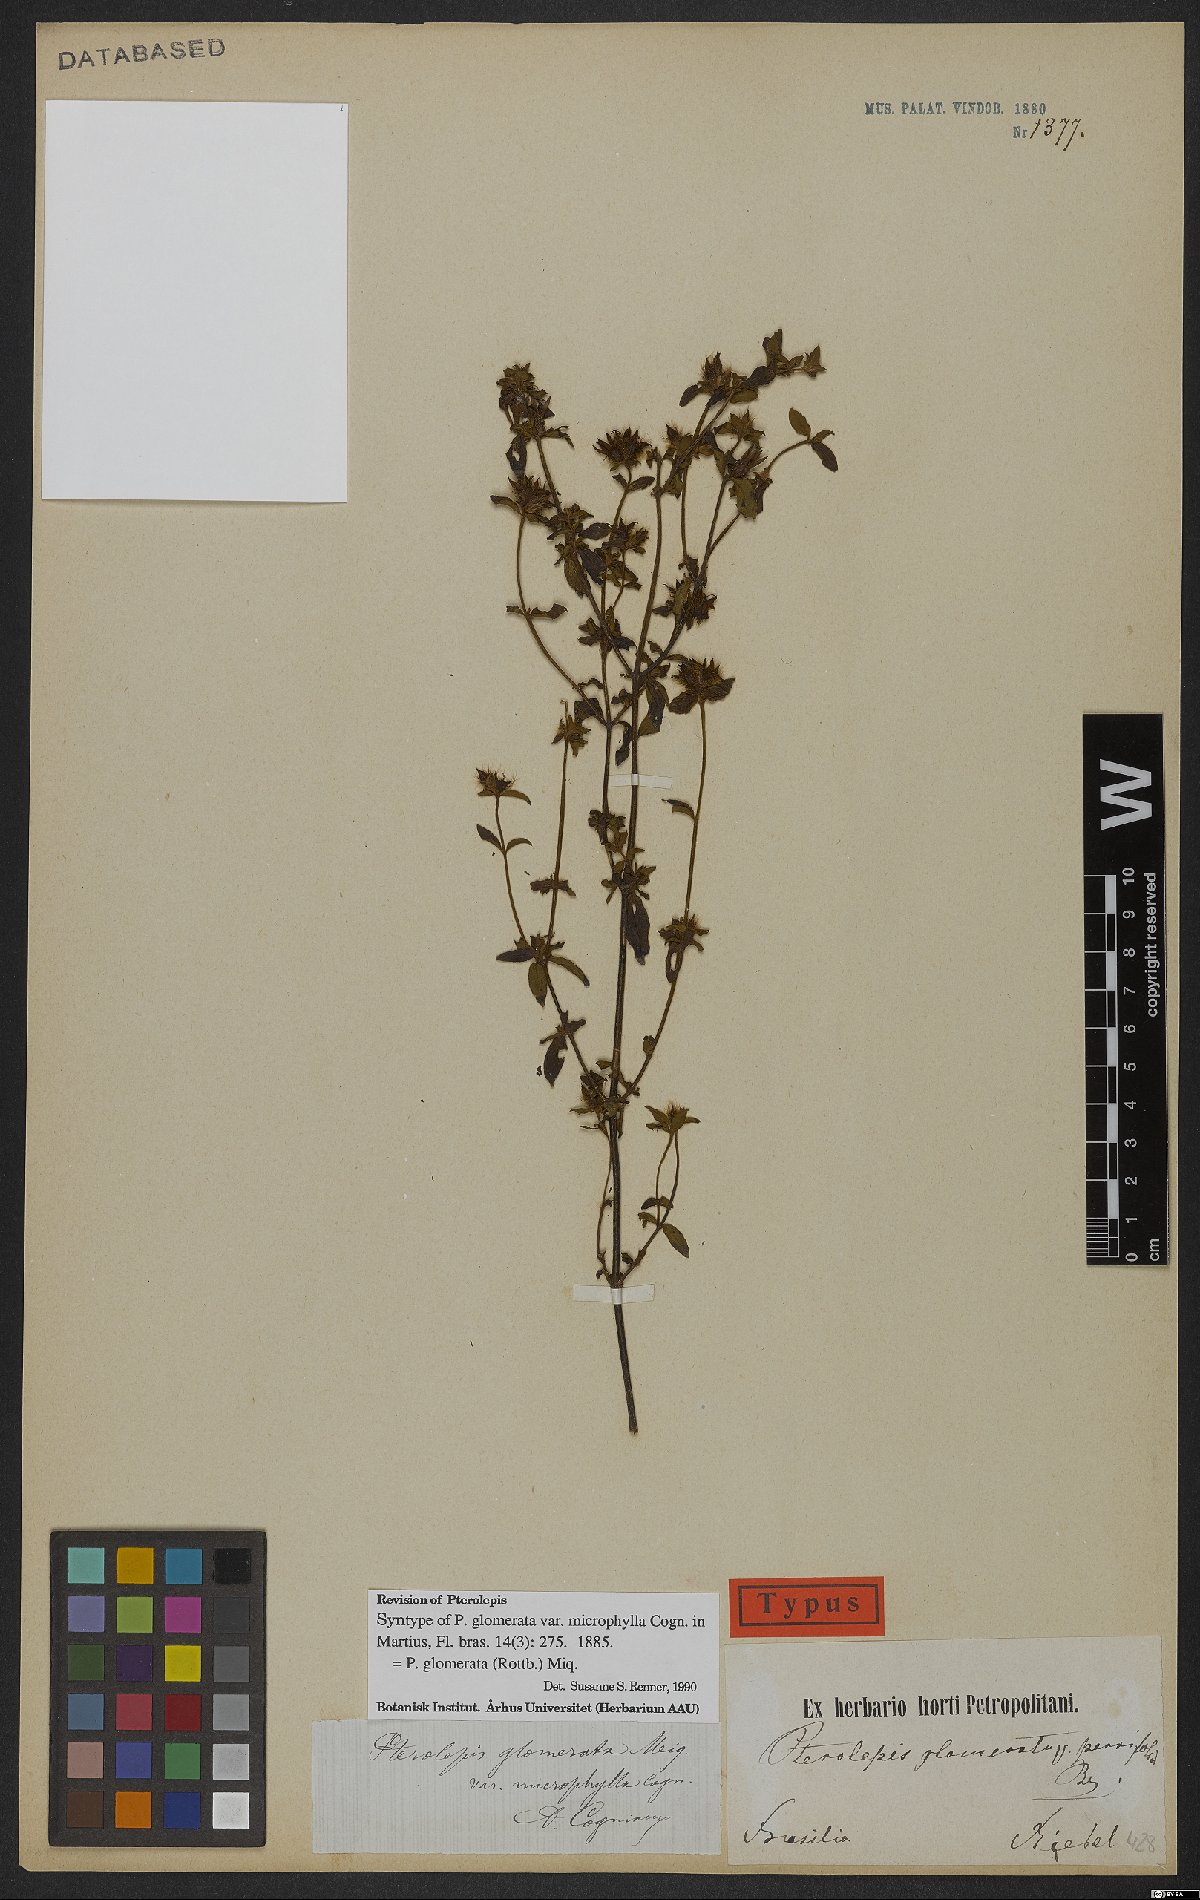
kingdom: Plantae
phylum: Tracheophyta
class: Magnoliopsida
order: Myrtales
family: Melastomataceae
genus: Pterolepis
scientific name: Pterolepis glomerata
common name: False meadowbeauty
